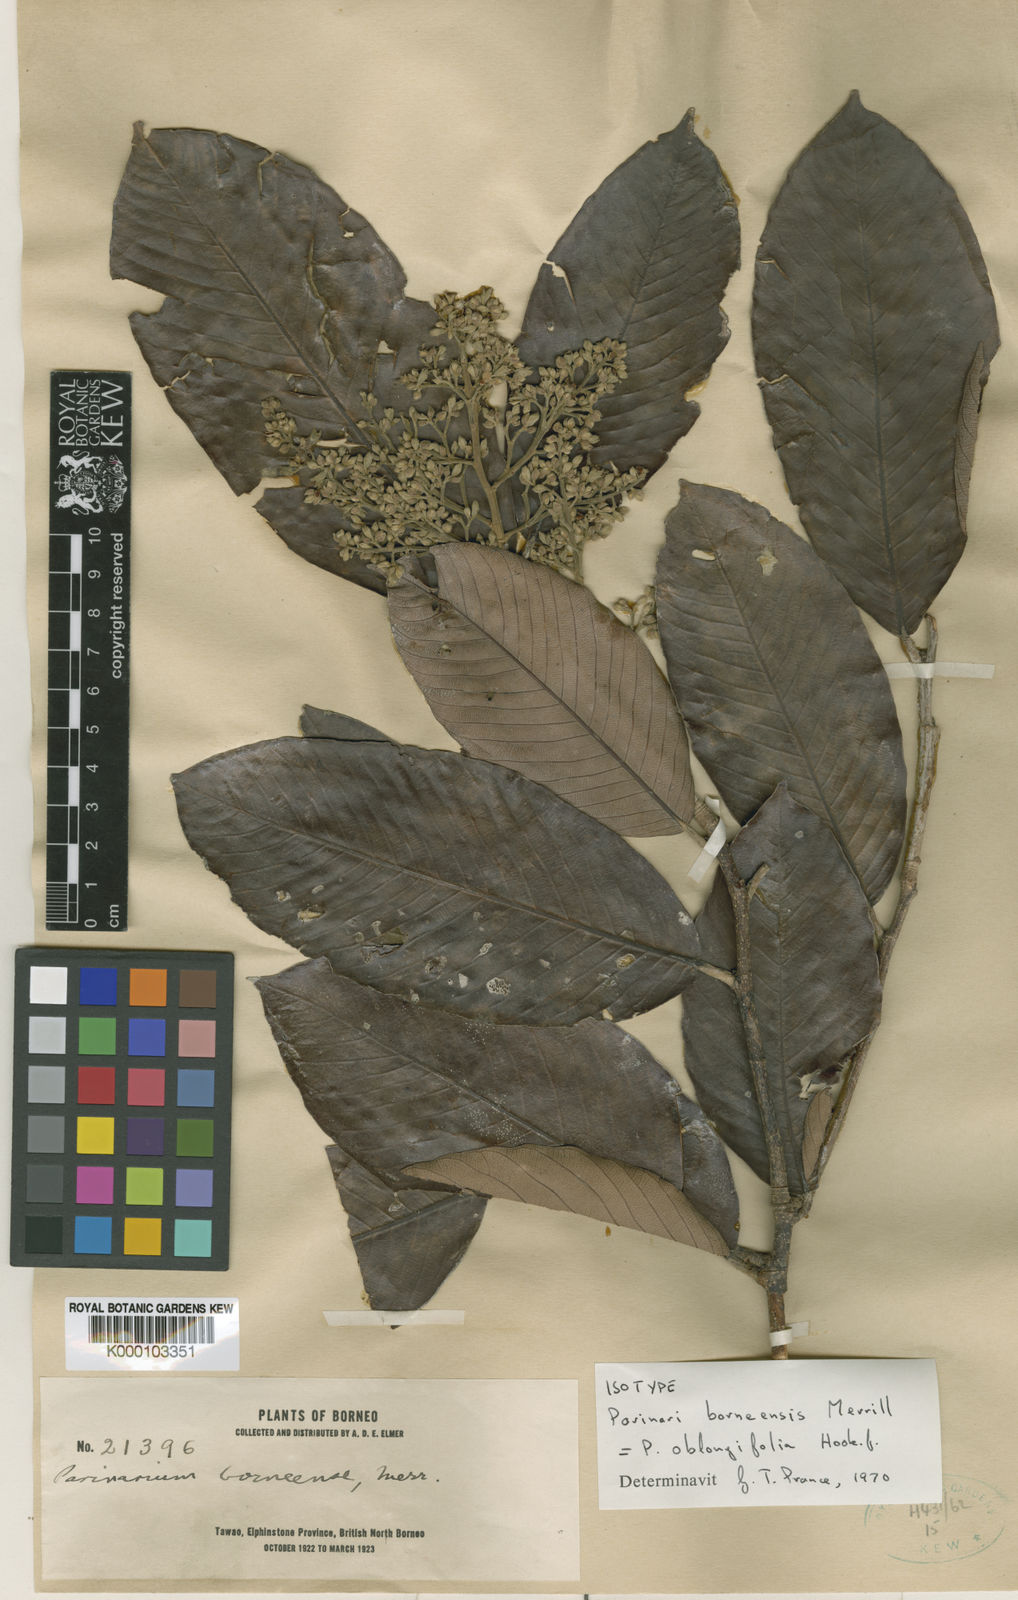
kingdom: Plantae
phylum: Tracheophyta
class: Magnoliopsida
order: Malpighiales
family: Chrysobalanaceae
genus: Parinari
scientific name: Parinari oblongifolia
